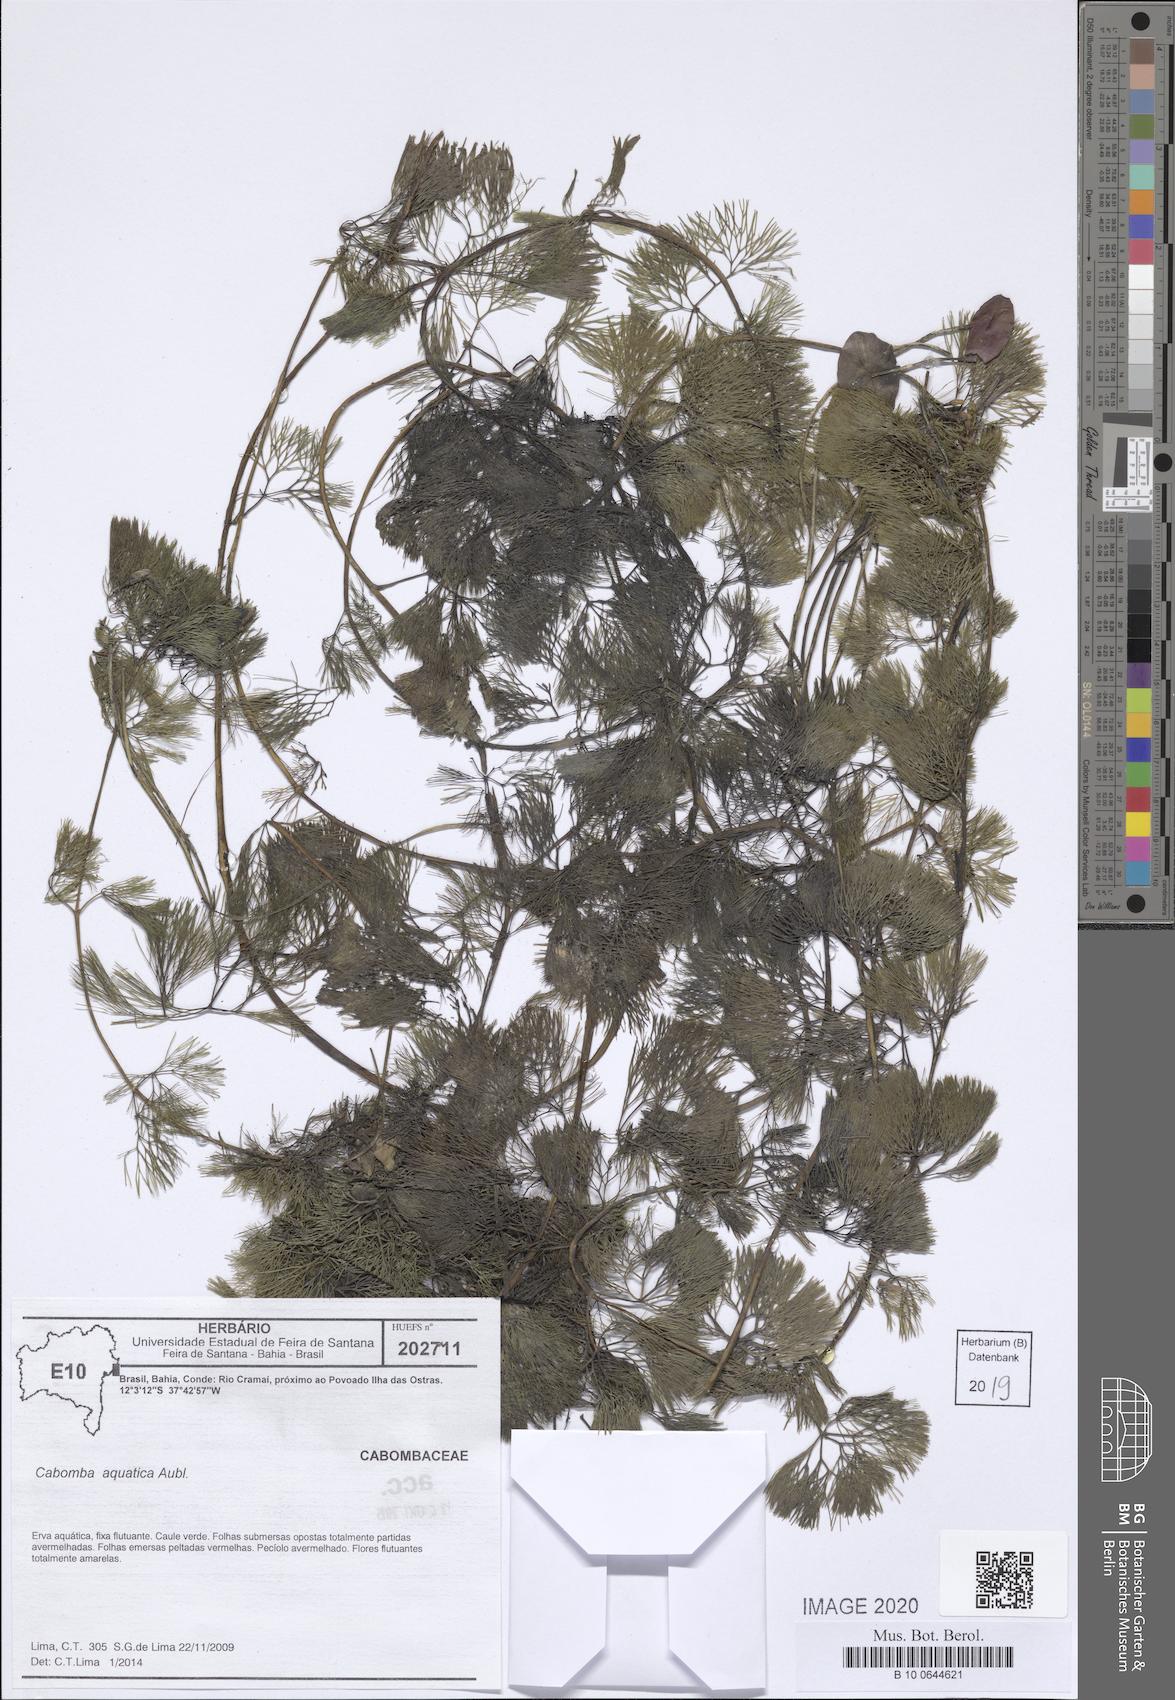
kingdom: Plantae
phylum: Tracheophyta
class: Magnoliopsida
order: Nymphaeales
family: Cabombaceae
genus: Cabomba
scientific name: Cabomba aquatica
